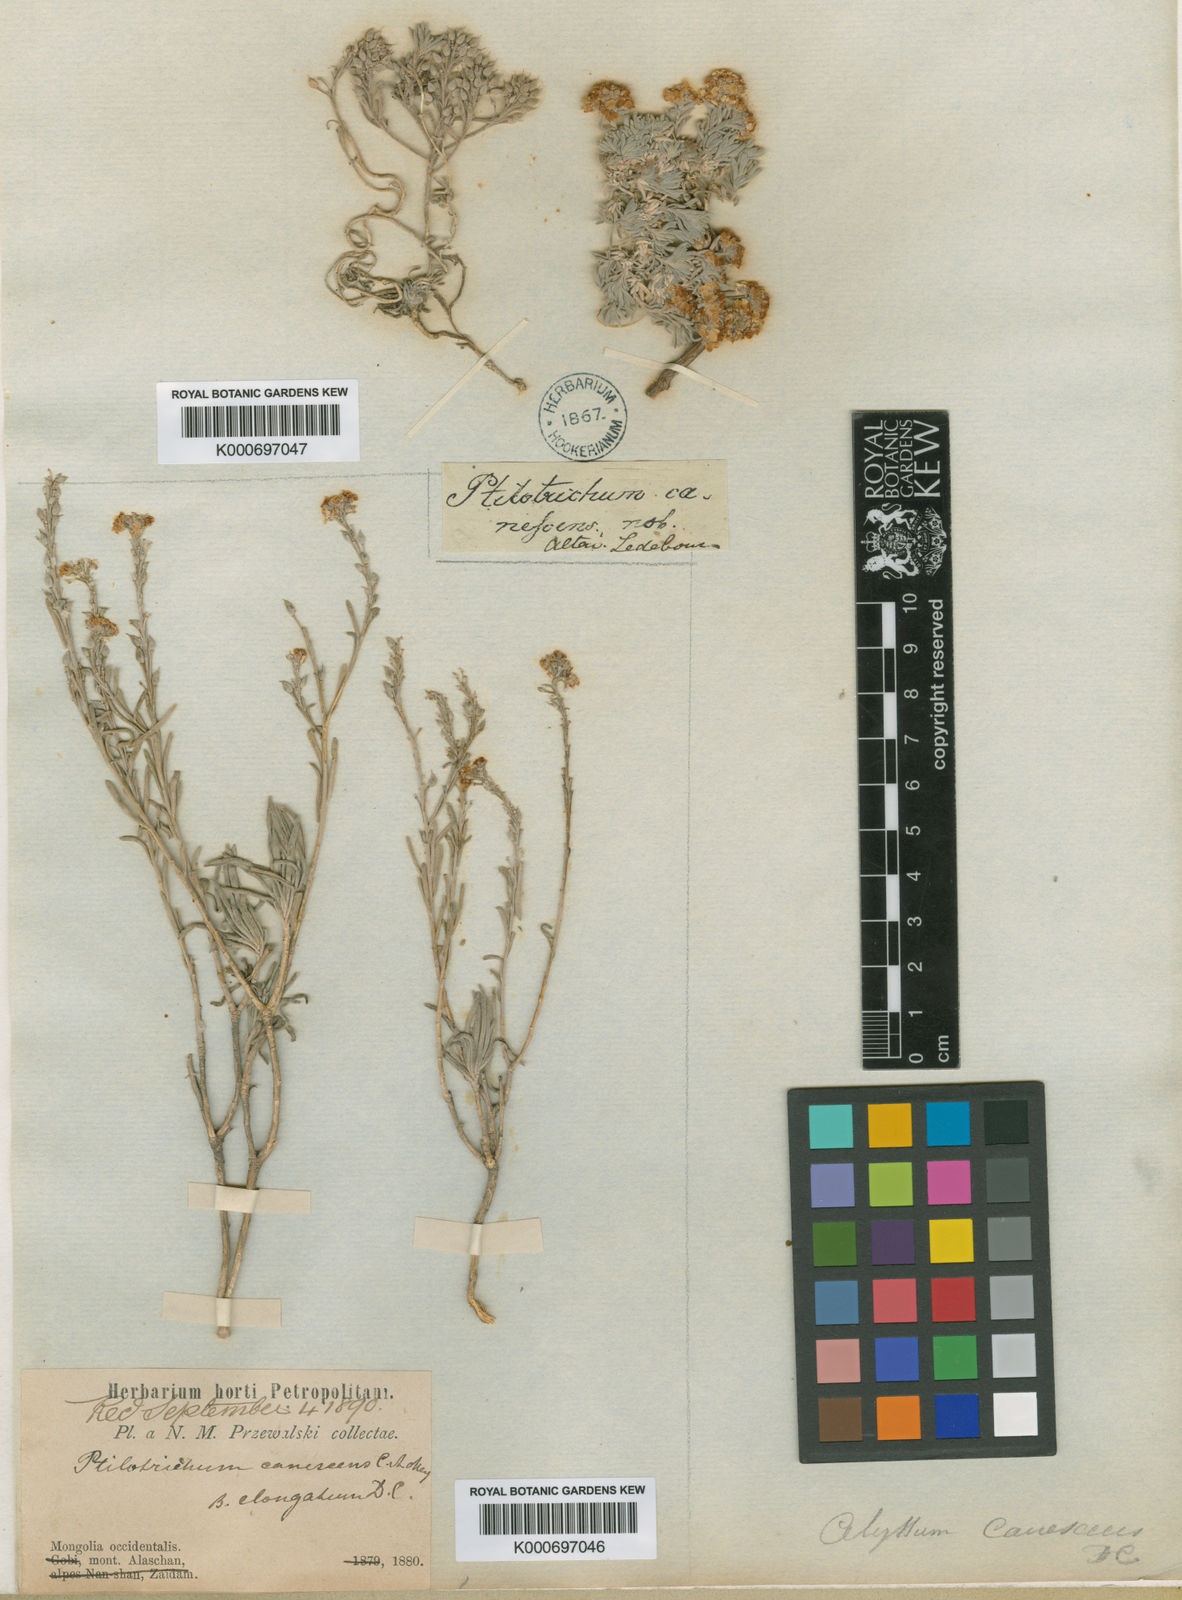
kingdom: Plantae
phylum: Tracheophyta
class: Magnoliopsida
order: Brassicales
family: Brassicaceae
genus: Stevenia
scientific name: Stevenia canescens
